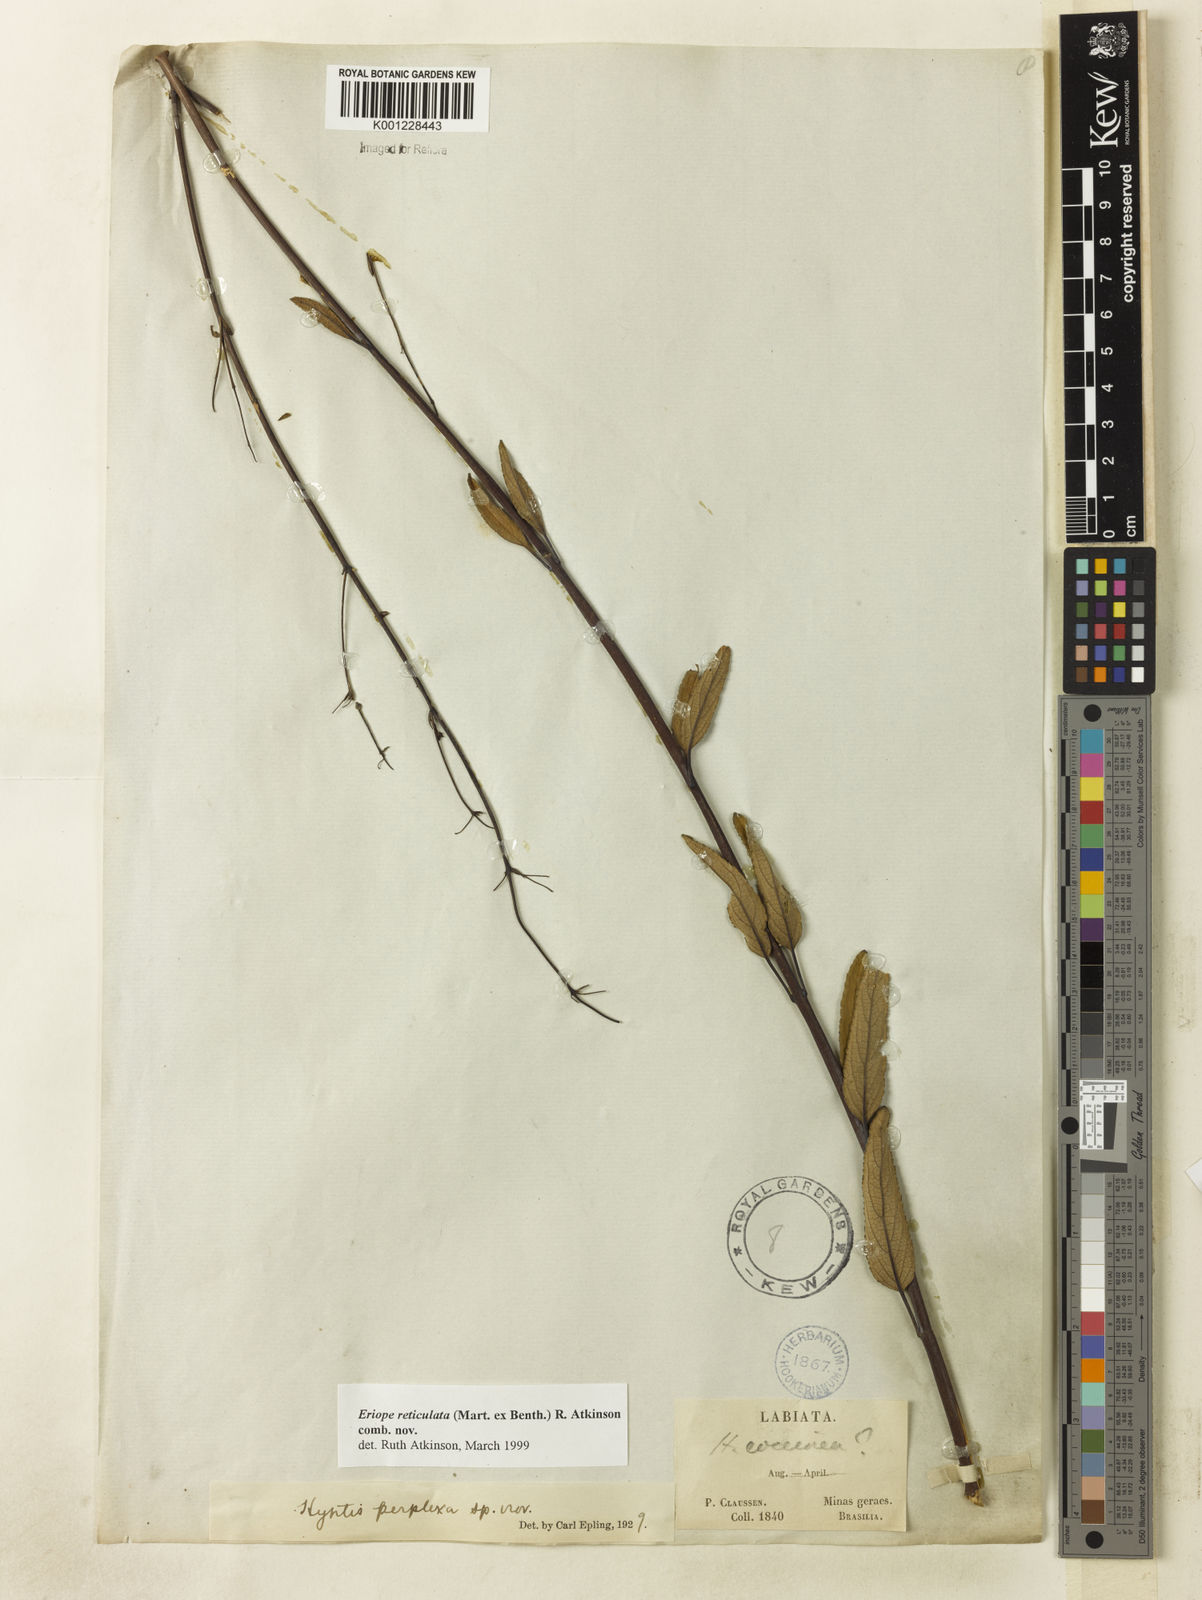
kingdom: Plantae
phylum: Tracheophyta
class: Magnoliopsida
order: Lamiales
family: Lamiaceae
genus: Hypenia
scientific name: Hypenia reticulata
